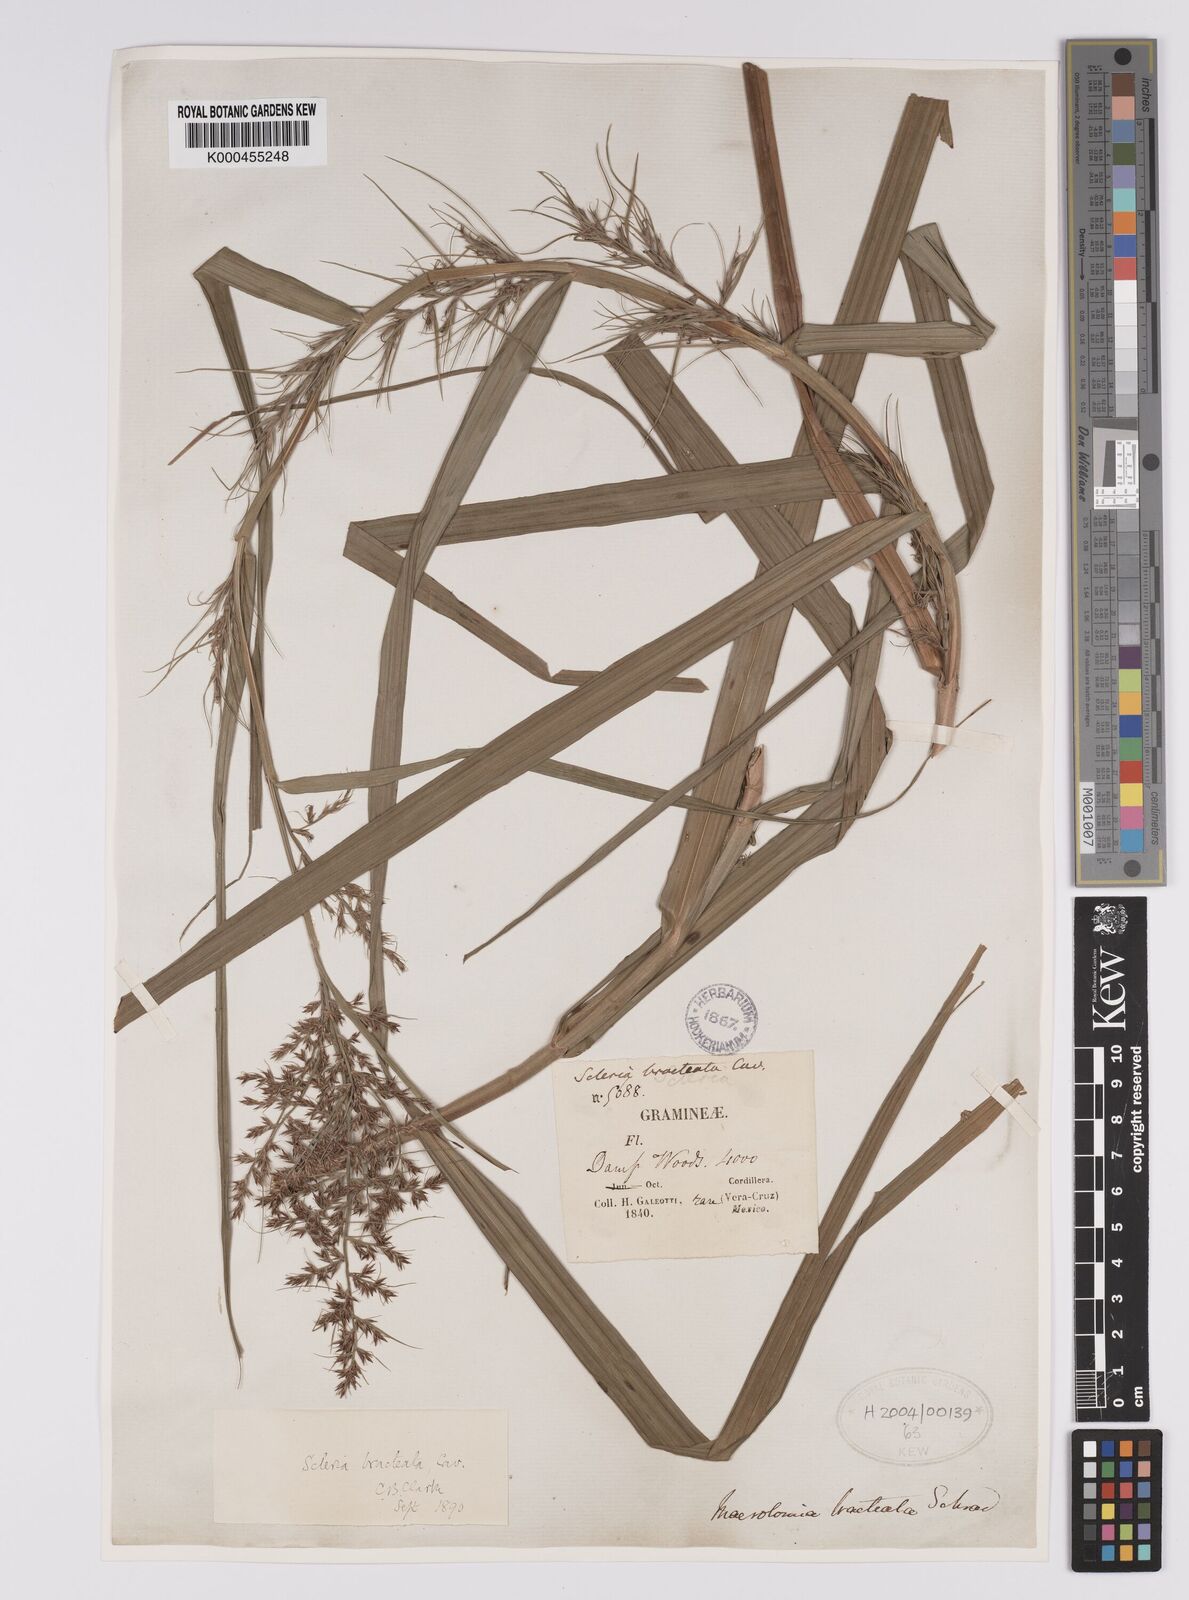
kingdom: Plantae
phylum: Tracheophyta
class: Liliopsida
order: Poales
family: Cyperaceae
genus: Scleria
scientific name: Scleria bracteata
